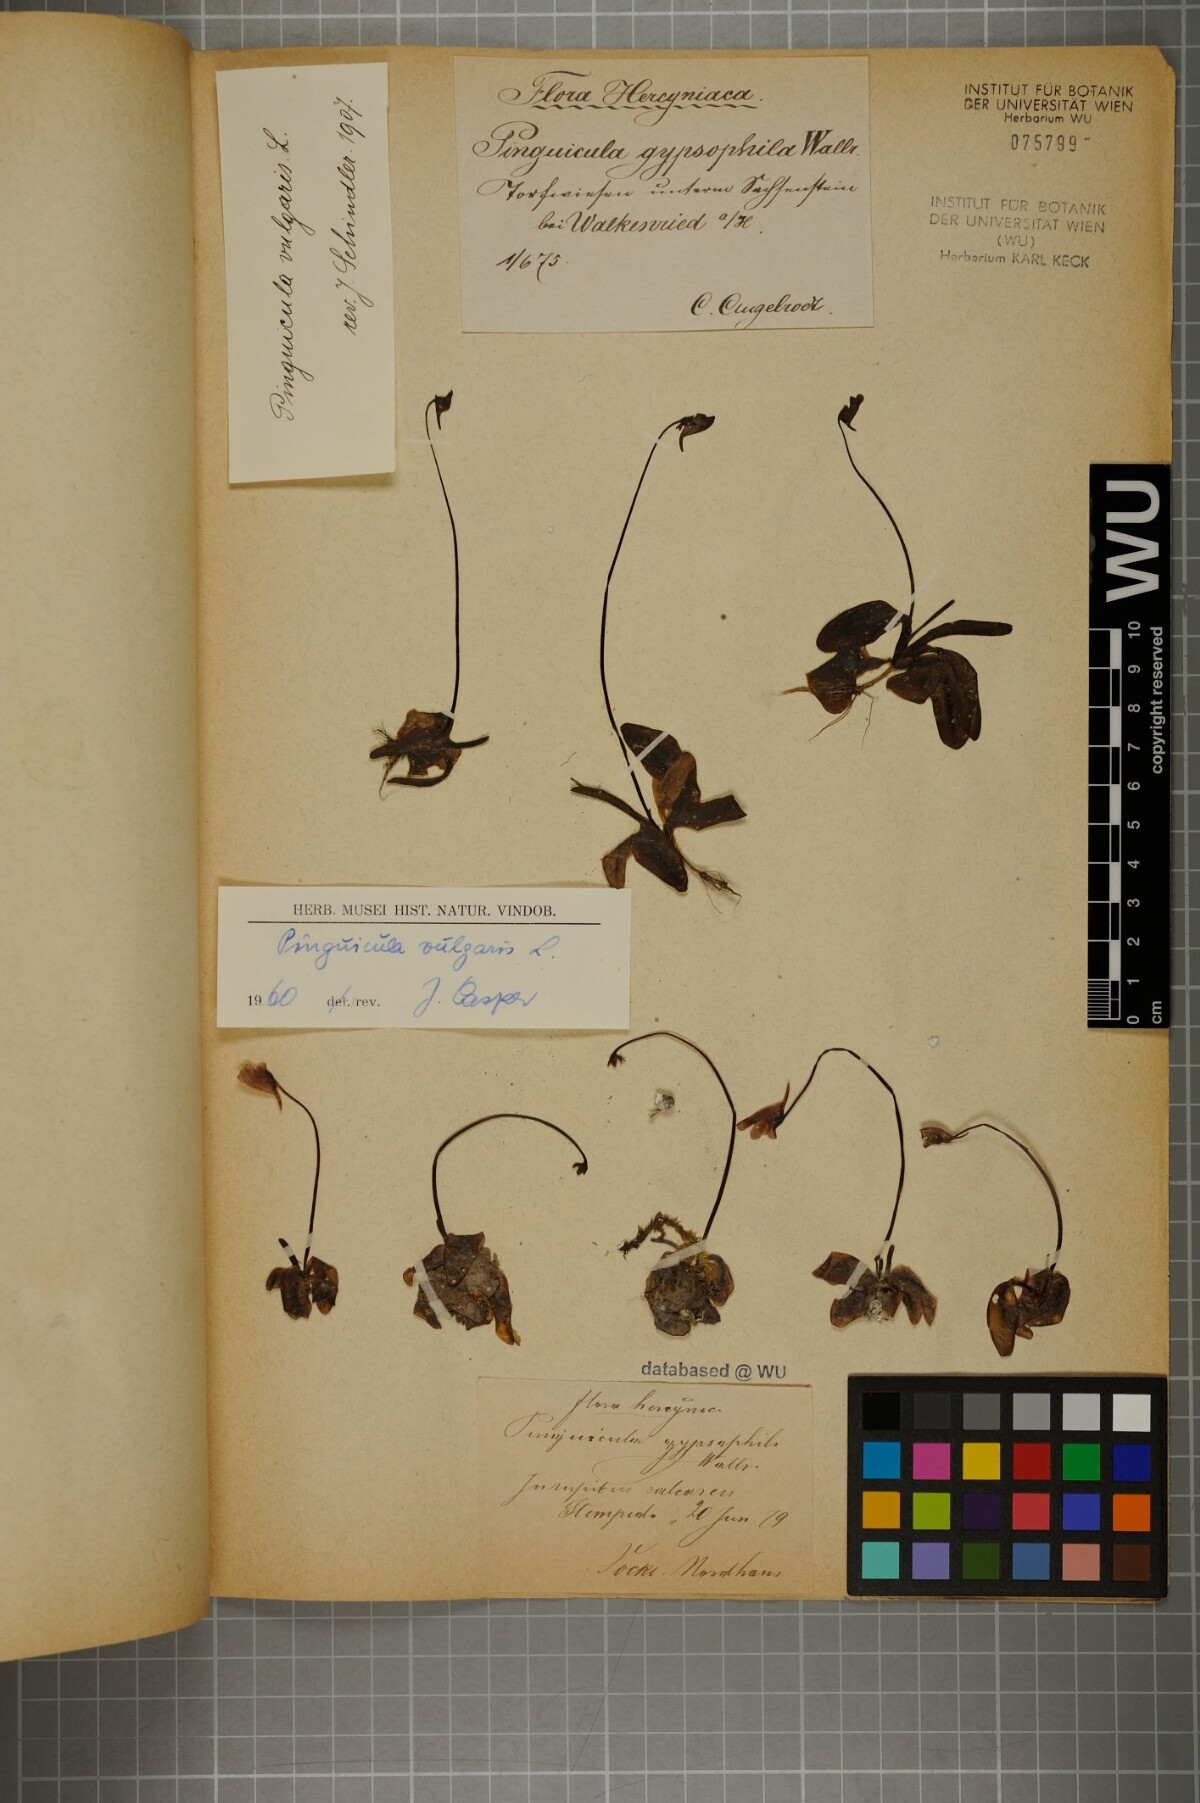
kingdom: Plantae
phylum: Tracheophyta
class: Magnoliopsida
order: Lamiales
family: Lentibulariaceae
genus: Pinguicula
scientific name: Pinguicula vulgaris
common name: Common butterwort
